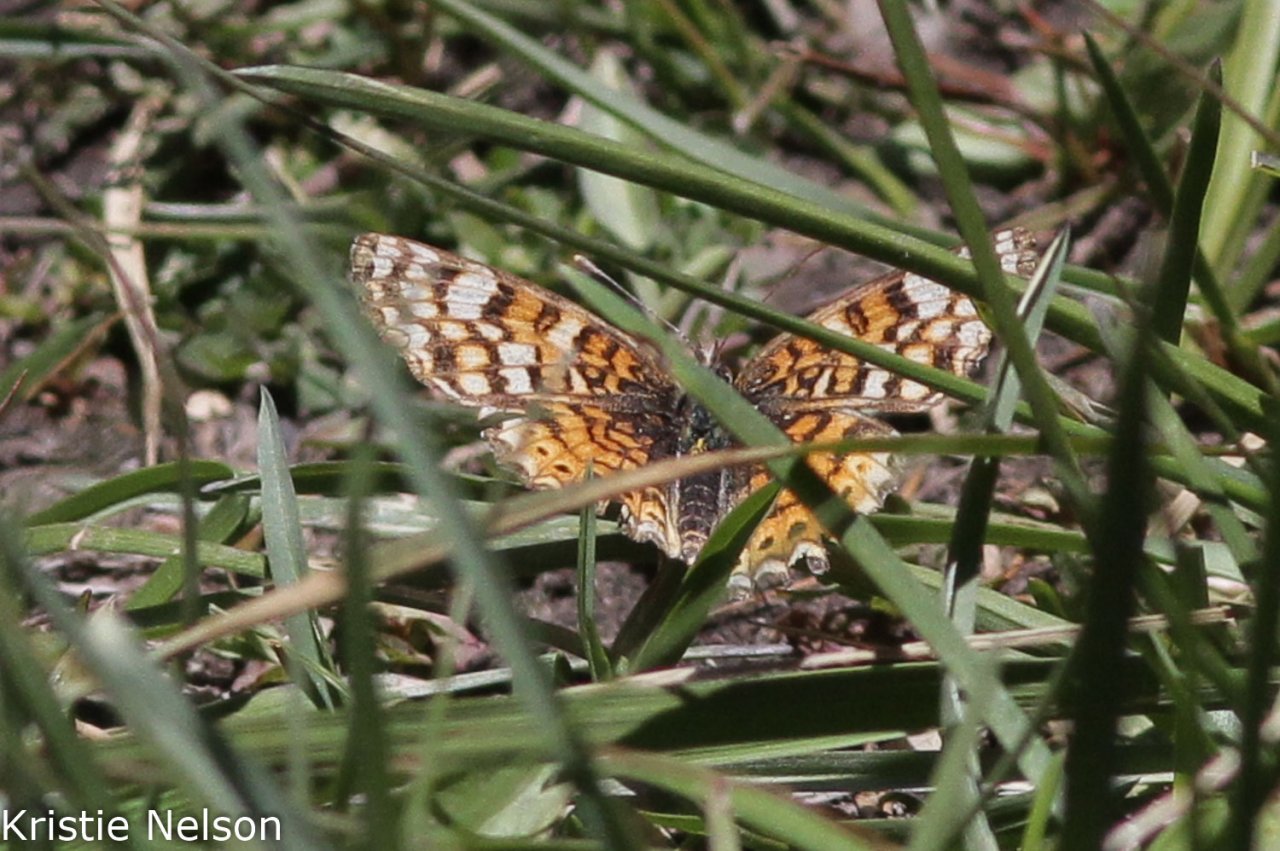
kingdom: Animalia
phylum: Arthropoda
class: Insecta
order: Lepidoptera
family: Nymphalidae
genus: Phyciodes
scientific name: Phyciodes tharos
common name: Field Crescent
